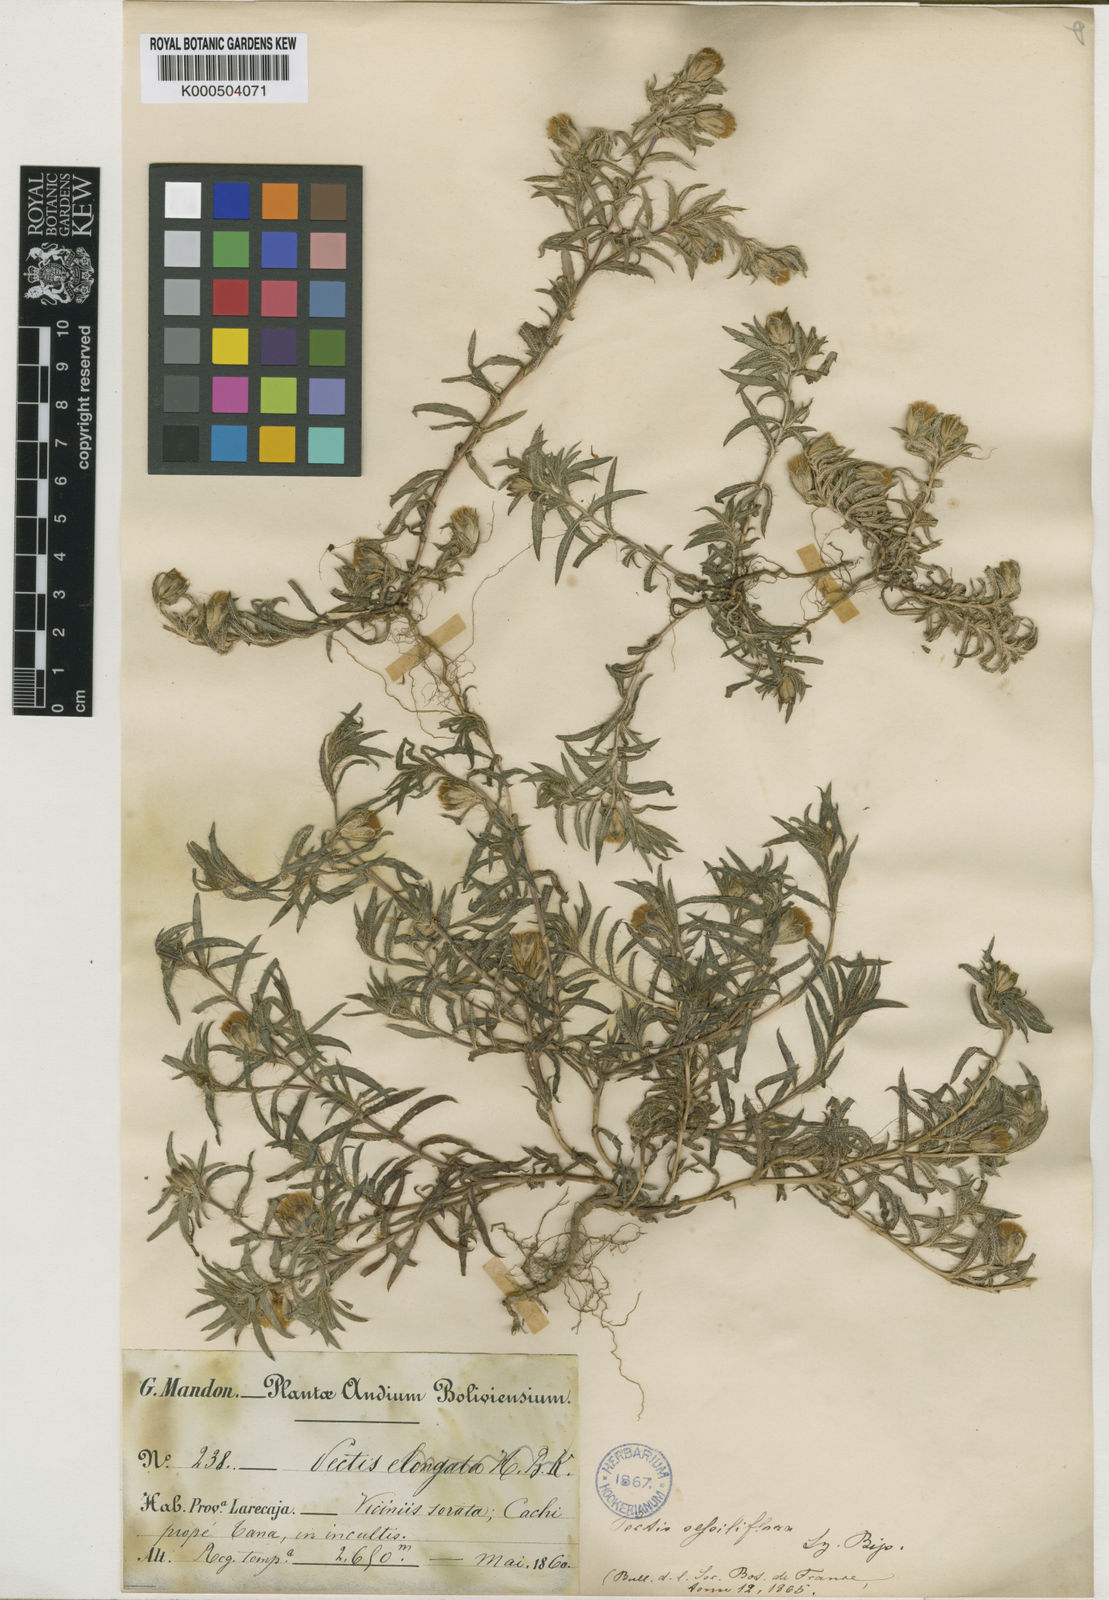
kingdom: Plantae
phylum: Tracheophyta
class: Magnoliopsida
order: Asterales
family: Asteraceae
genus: Pectis
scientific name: Pectis sessiliflora
